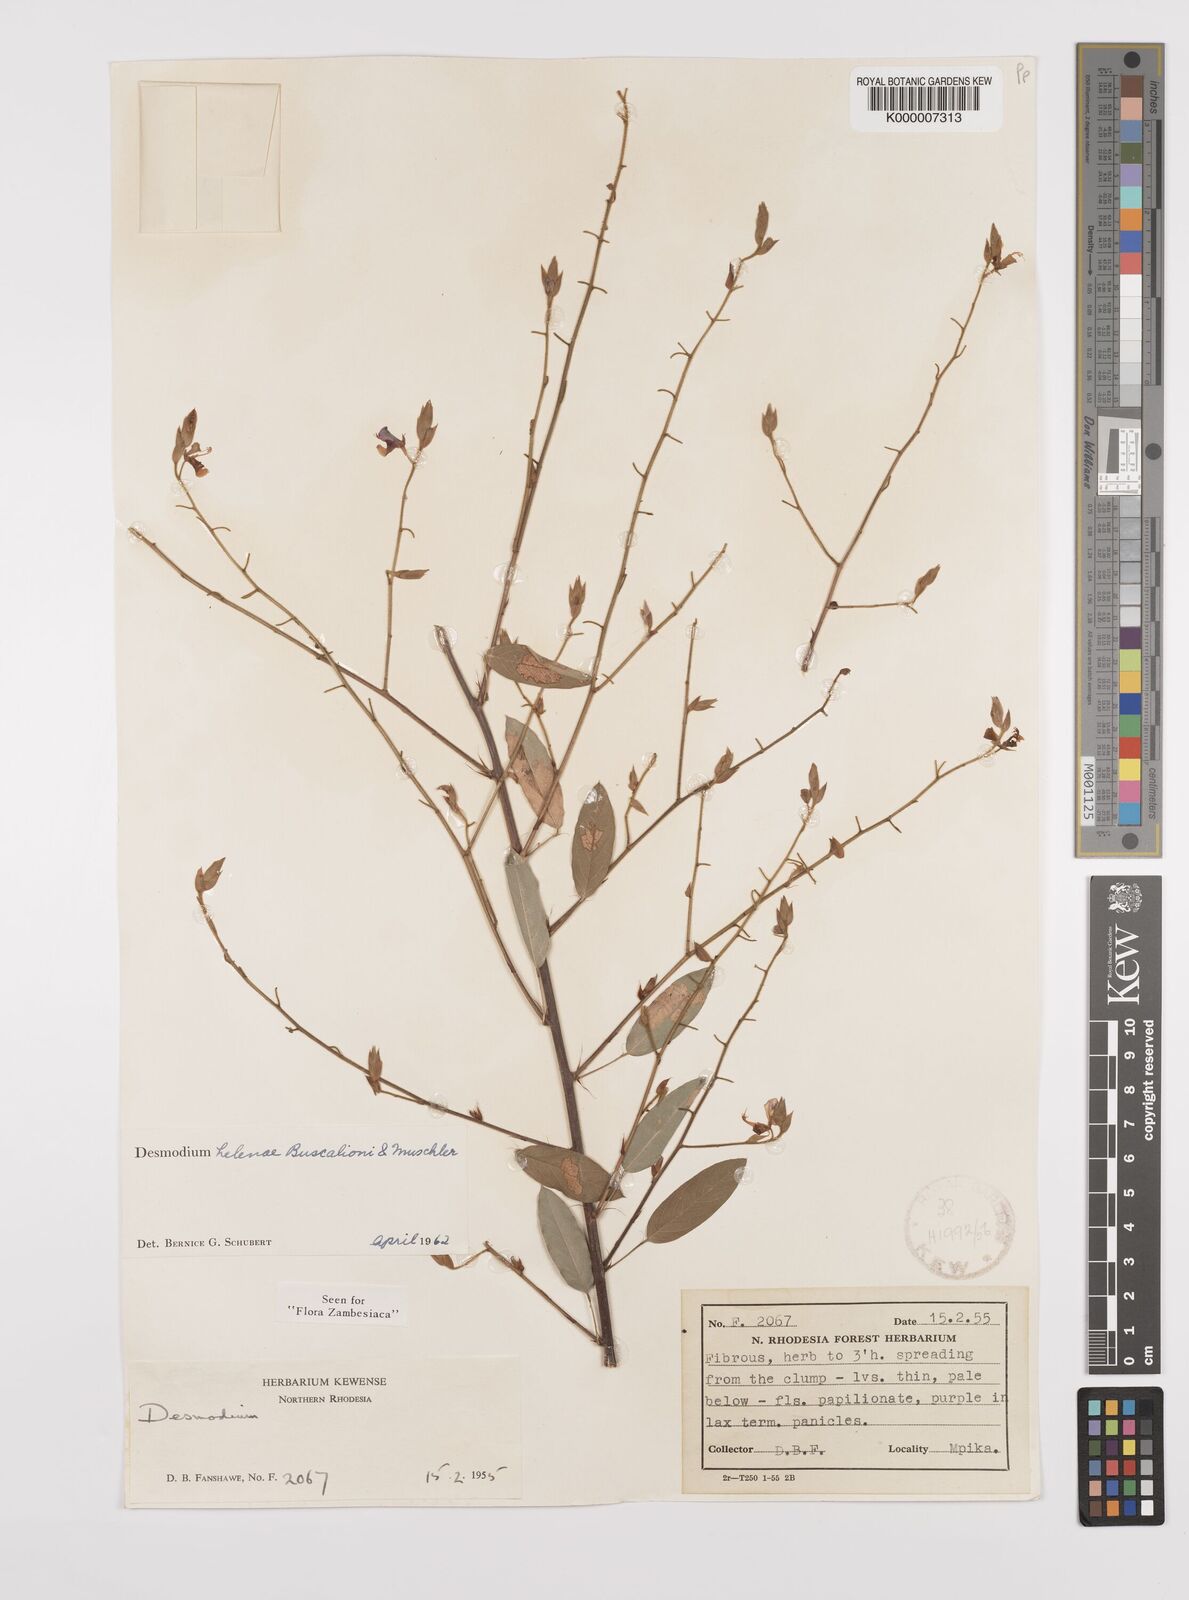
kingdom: Plantae
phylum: Tracheophyta
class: Magnoliopsida
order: Fabales
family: Fabaceae
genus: Grona
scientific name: Grona helenae
